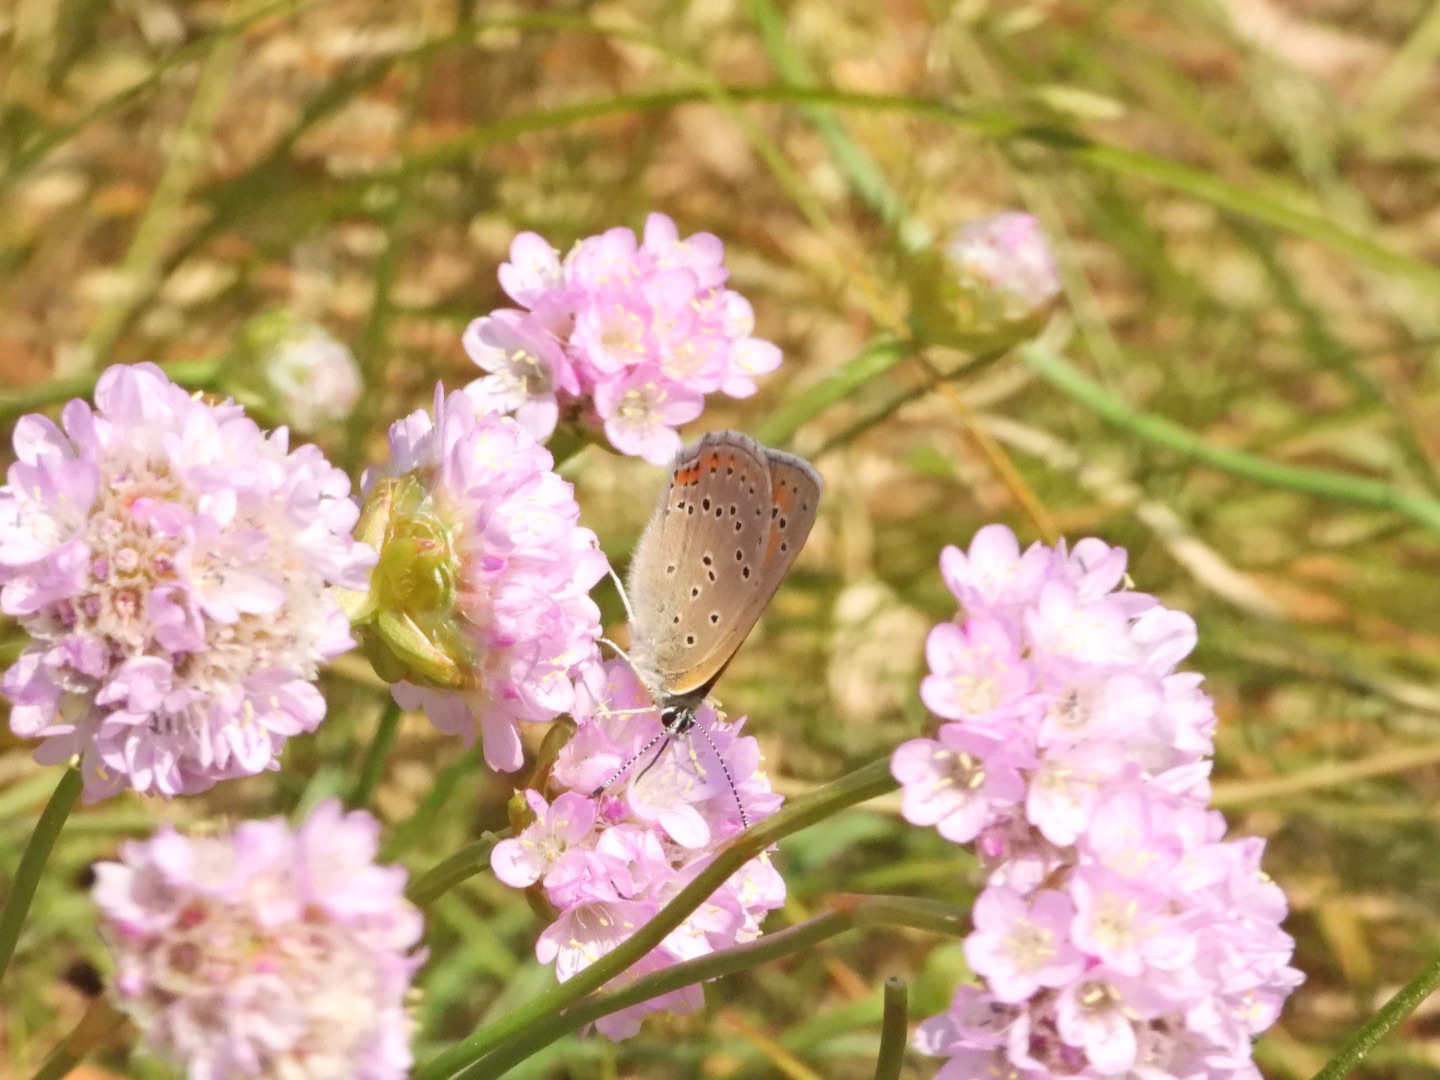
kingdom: Animalia
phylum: Arthropoda
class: Insecta
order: Lepidoptera
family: Lycaenidae
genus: Palaeochrysophanus
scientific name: Palaeochrysophanus hippothoe
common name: Violetrandet ildfugl
